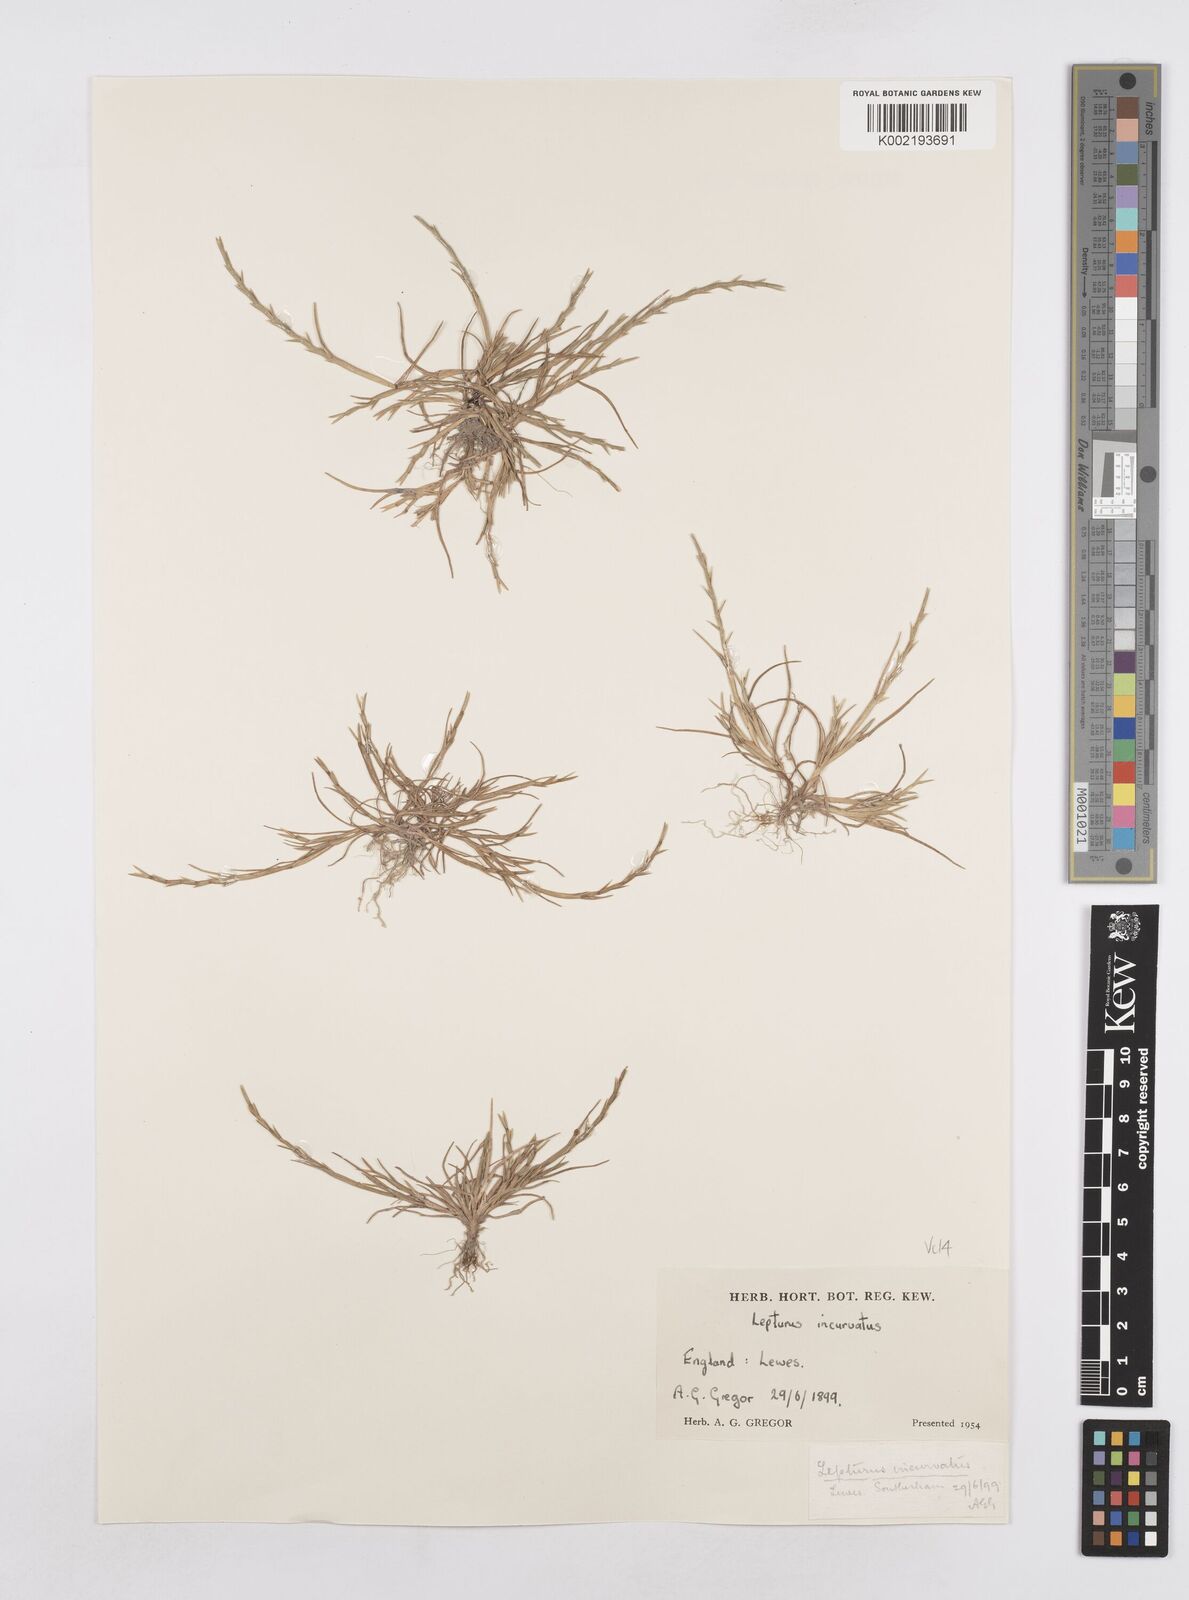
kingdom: Plantae
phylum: Tracheophyta
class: Liliopsida
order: Poales
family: Poaceae
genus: Parapholis
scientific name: Parapholis strigosa
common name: Hard-grass
